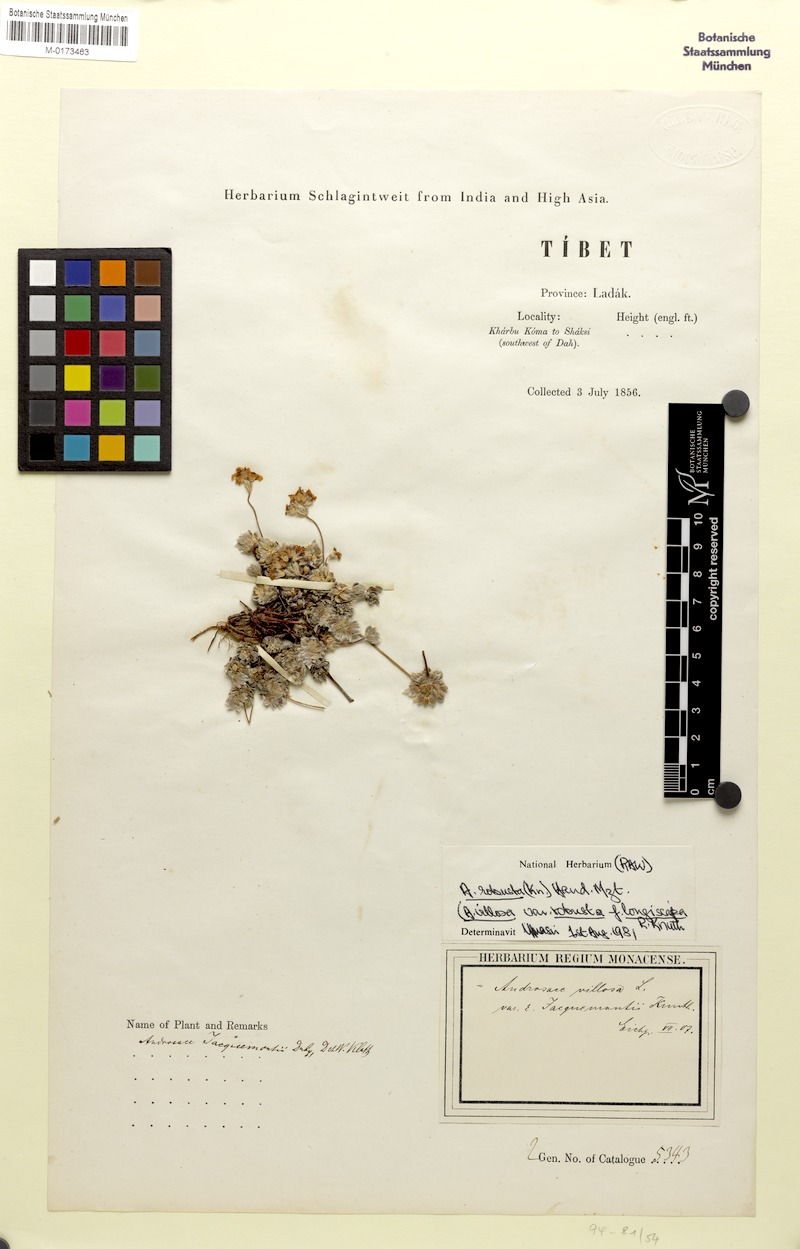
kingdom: Plantae
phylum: Tracheophyta
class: Magnoliopsida
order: Ericales
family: Primulaceae
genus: Androsace
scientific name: Androsace jacquemontii
